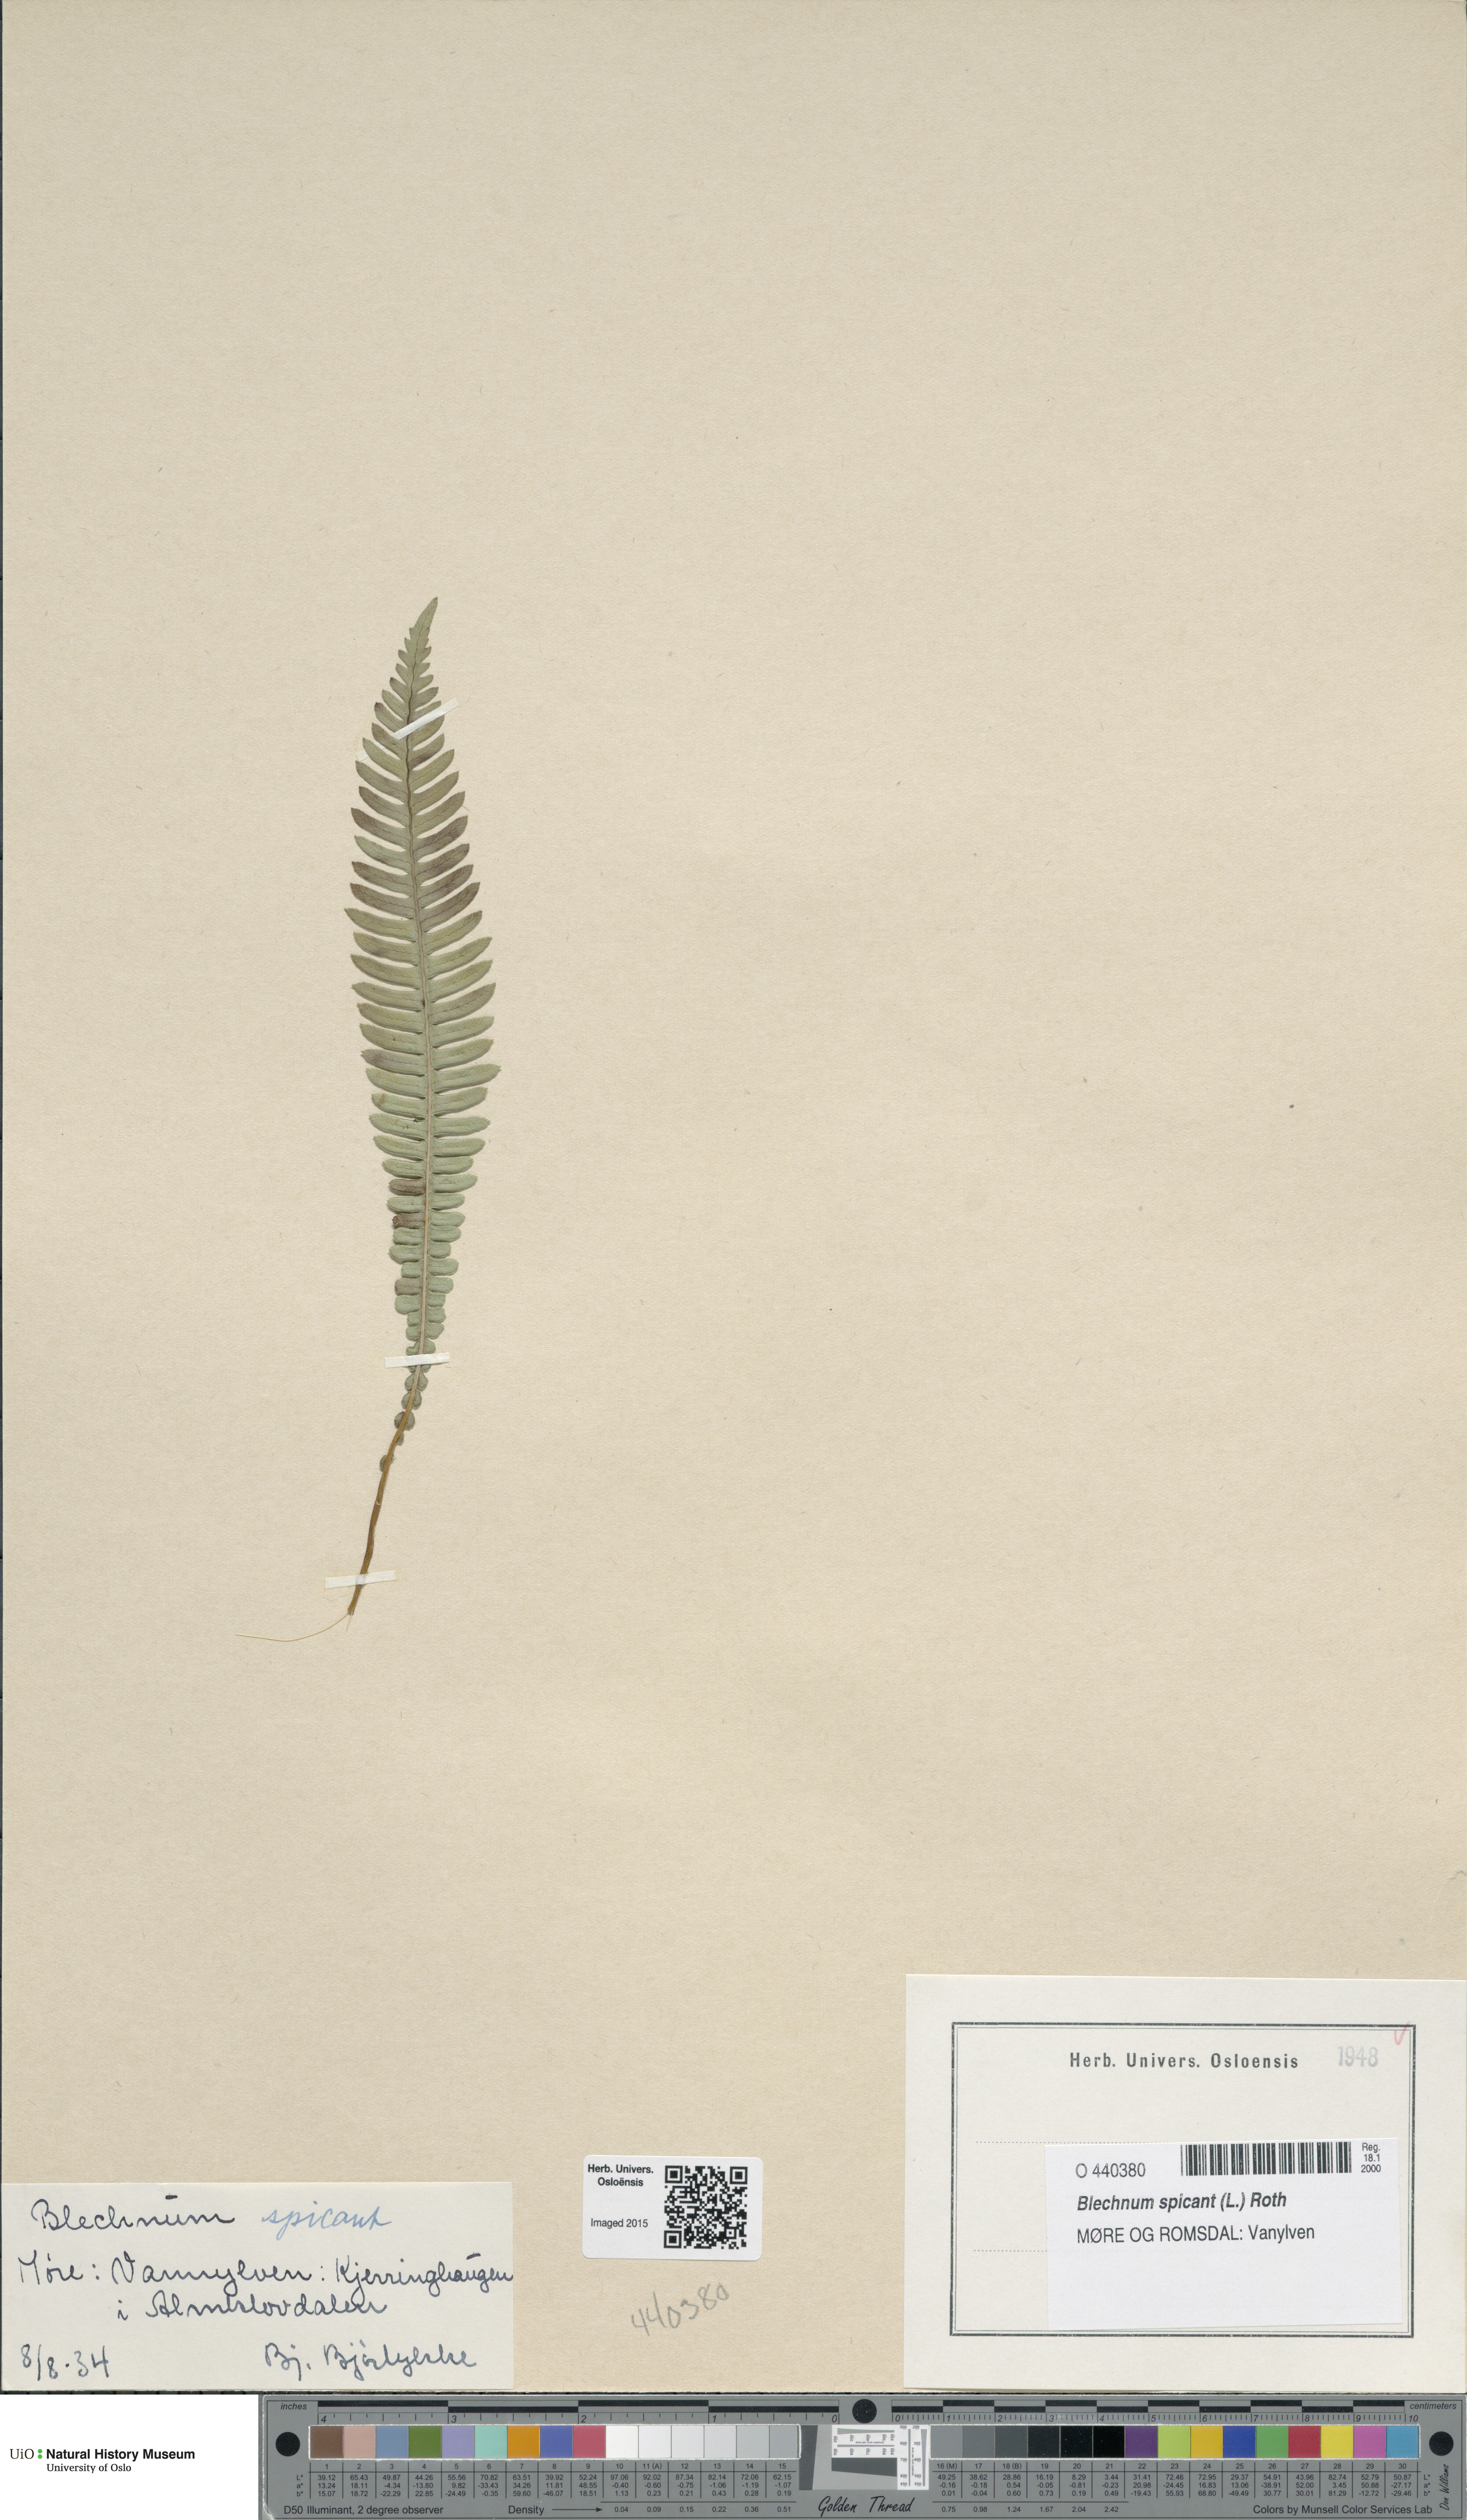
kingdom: Plantae
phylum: Tracheophyta
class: Polypodiopsida
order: Polypodiales
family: Blechnaceae
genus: Struthiopteris
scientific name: Struthiopteris spicant
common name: Deer fern
